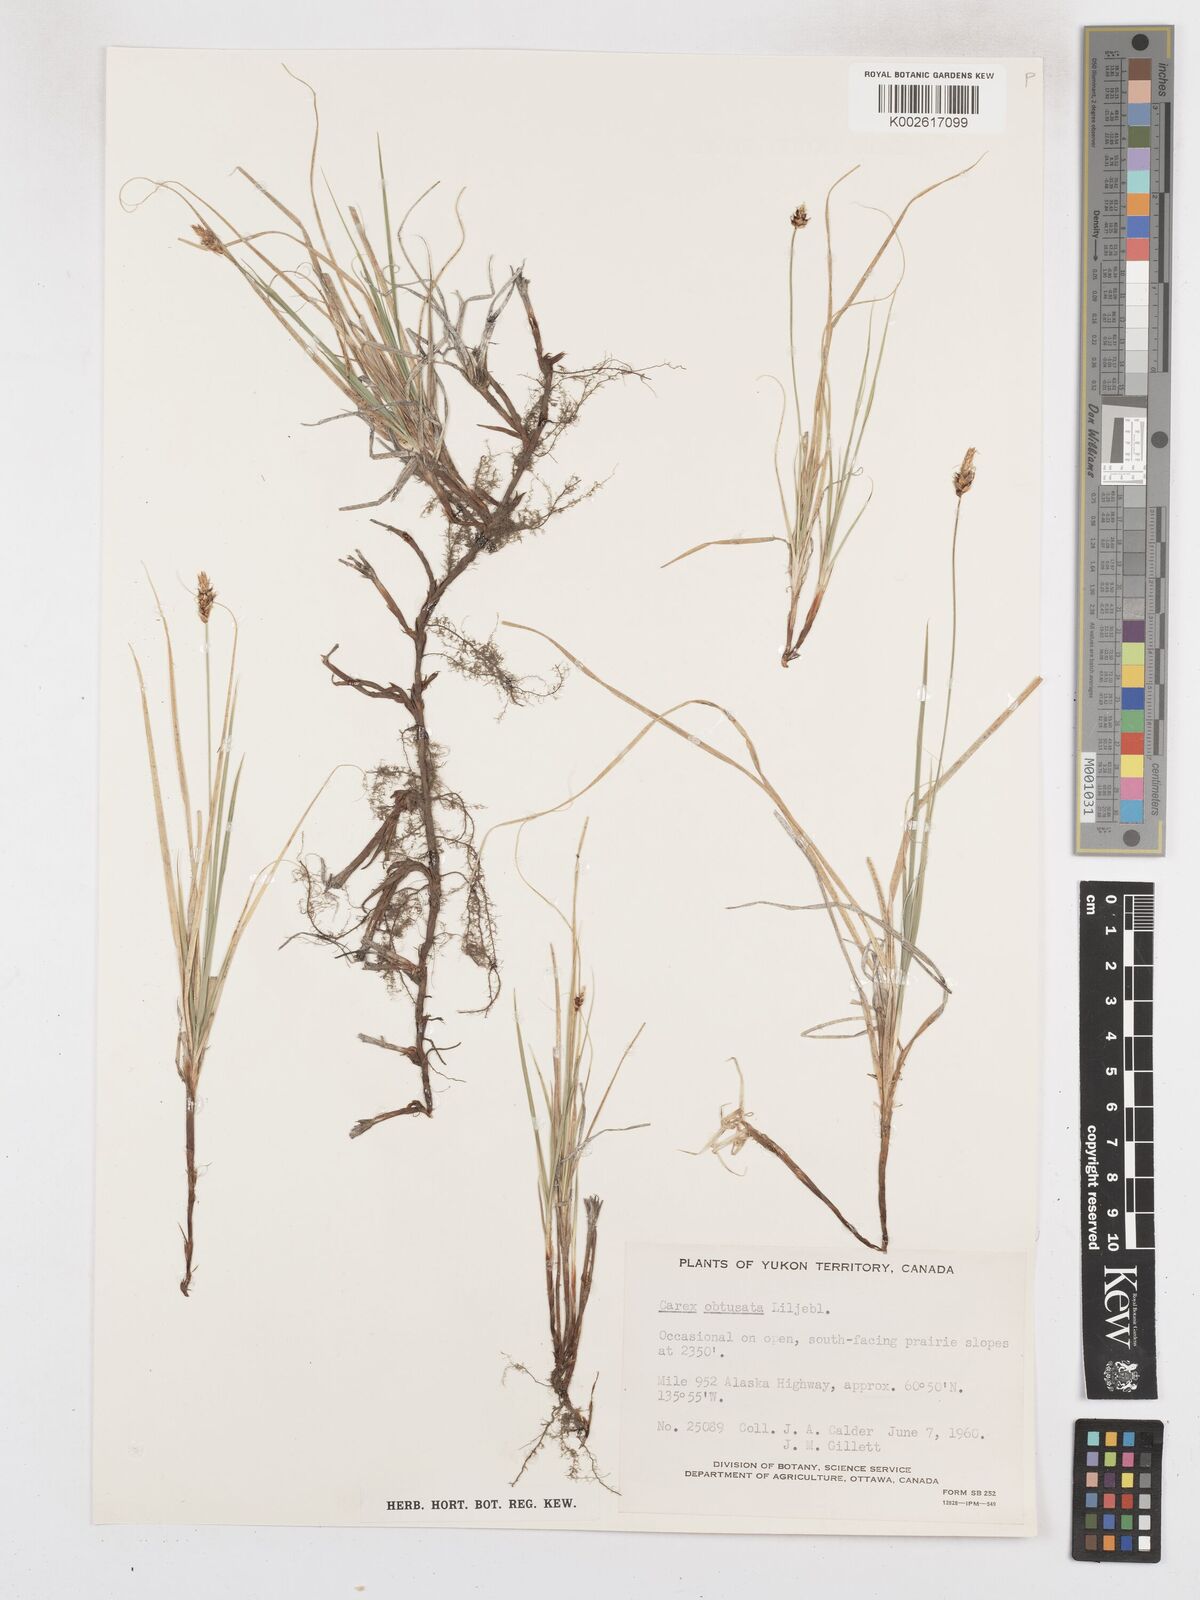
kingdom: Plantae
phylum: Tracheophyta
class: Liliopsida
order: Poales
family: Cyperaceae
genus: Carex
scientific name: Carex obtusata
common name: Blunt sedge
